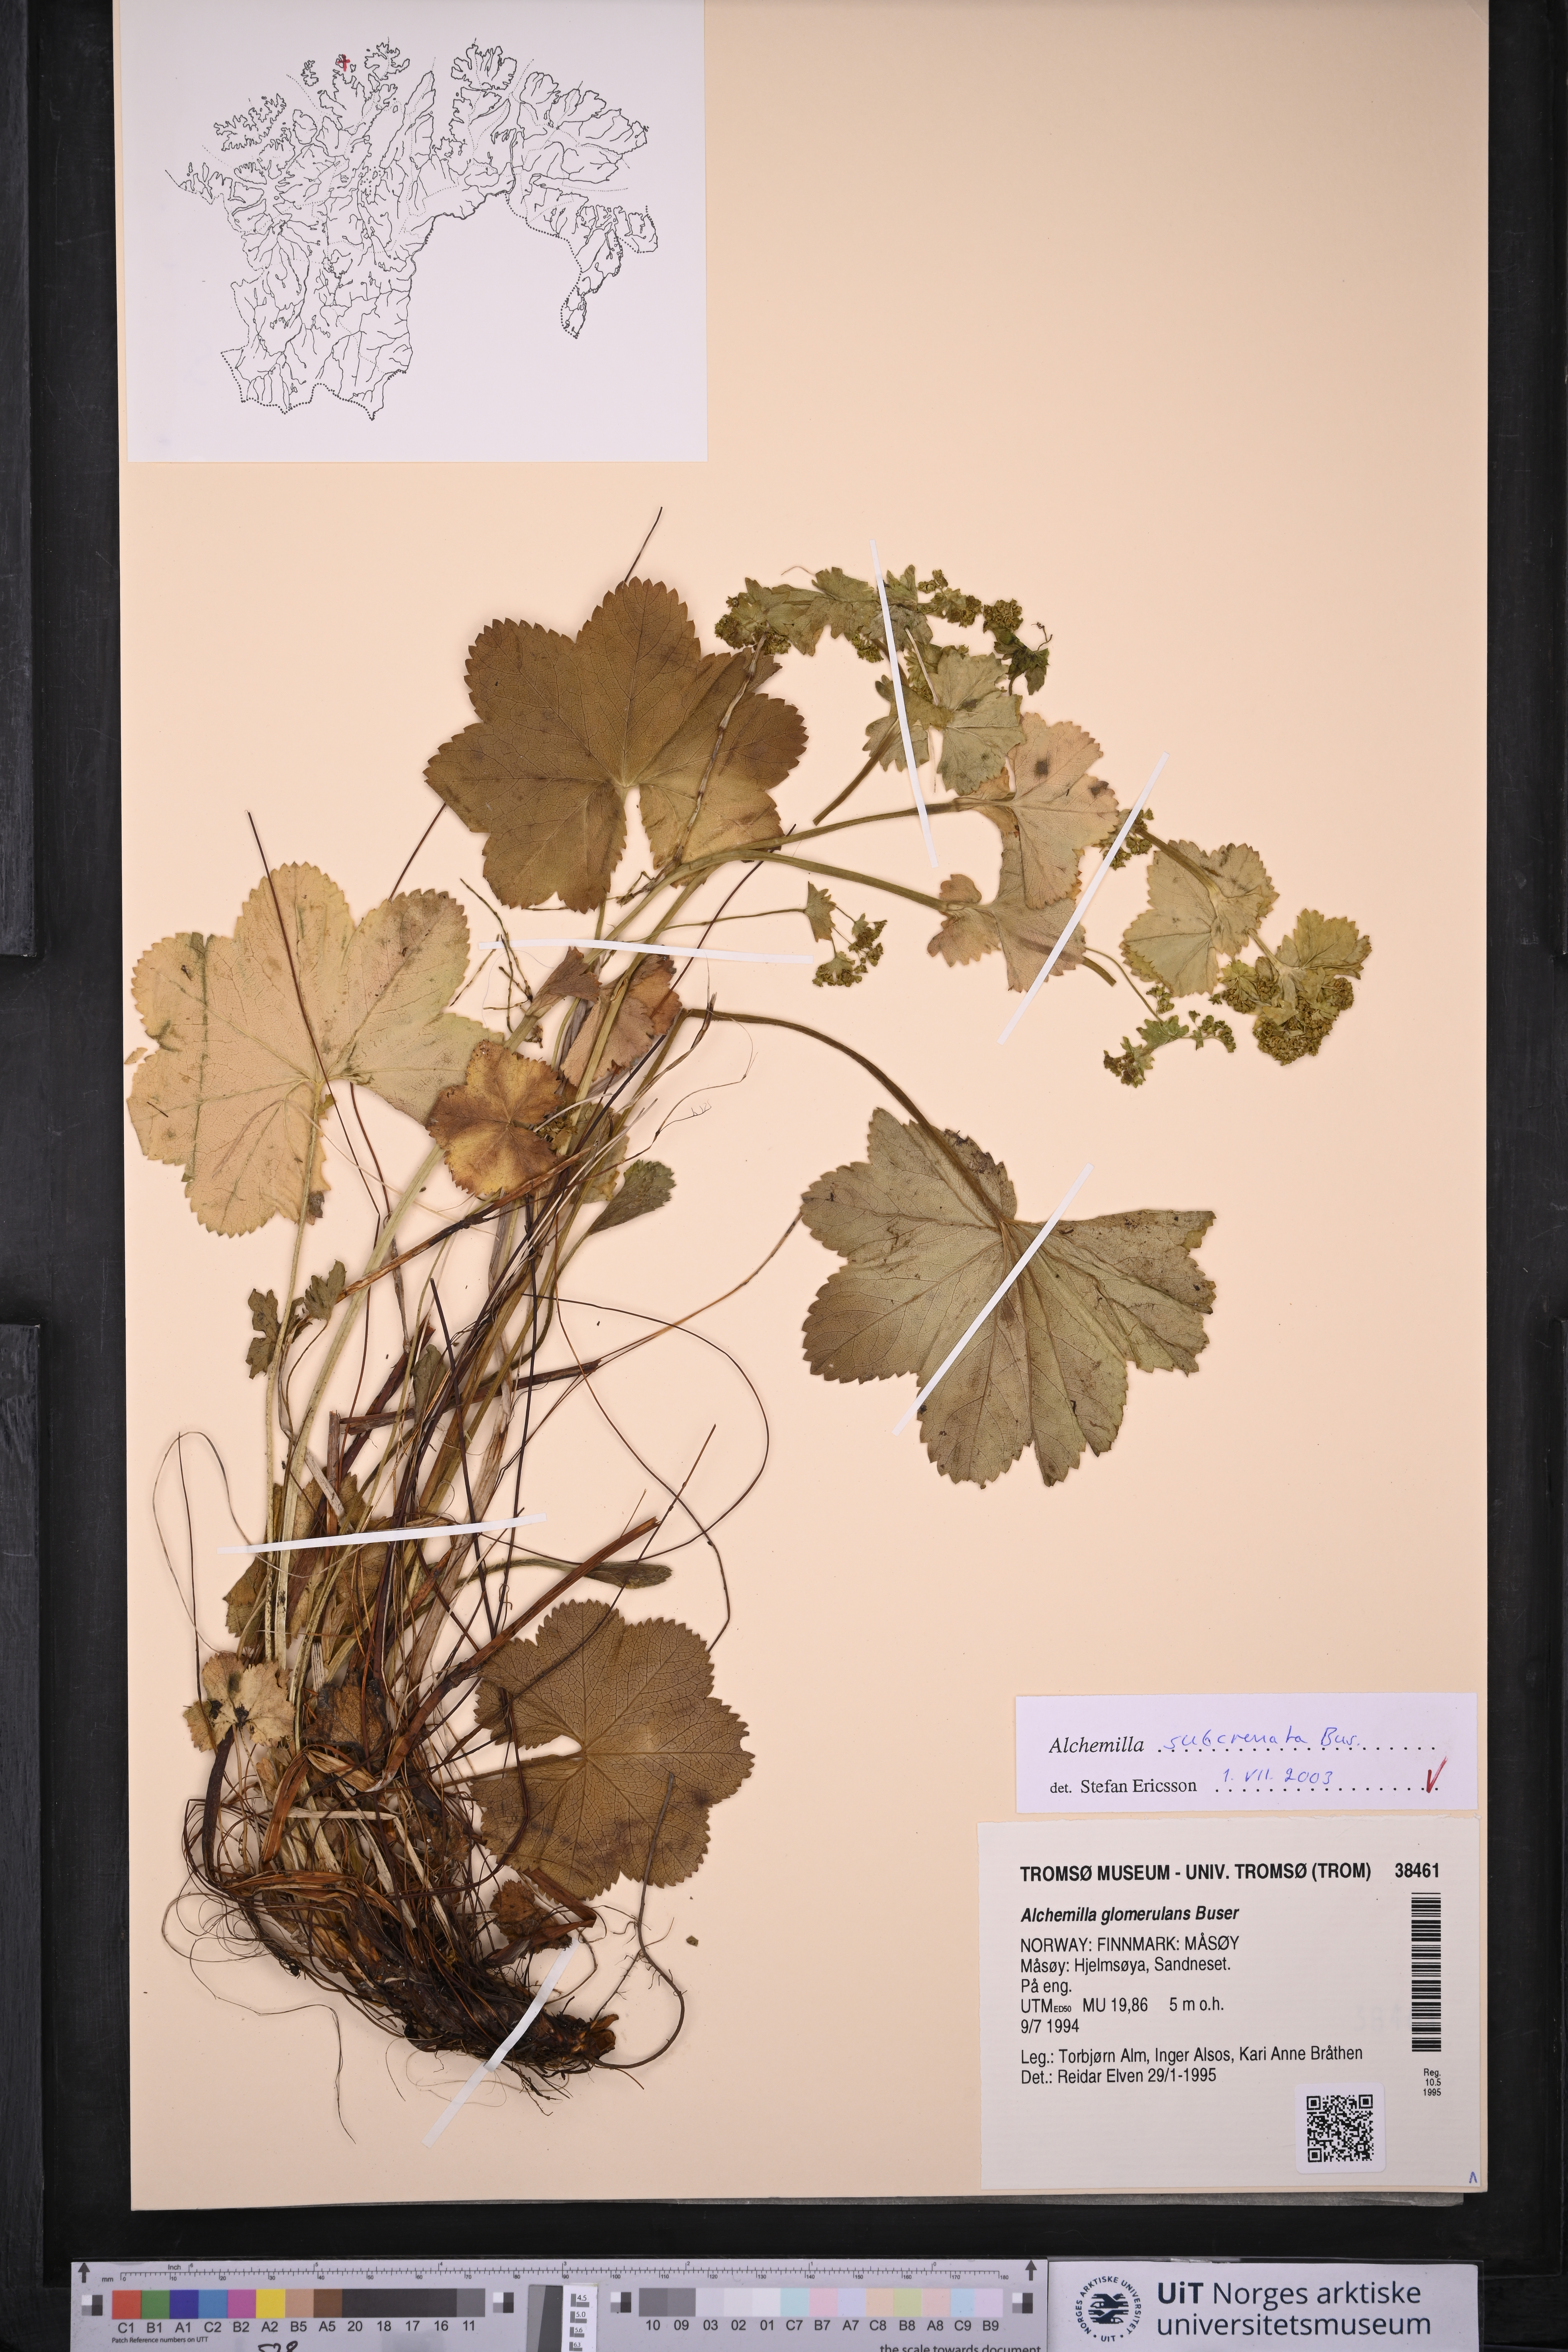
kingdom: Plantae
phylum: Tracheophyta
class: Magnoliopsida
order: Rosales
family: Rosaceae
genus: Alchemilla
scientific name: Alchemilla subcrenata
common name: Broadtooth lady's mantle
